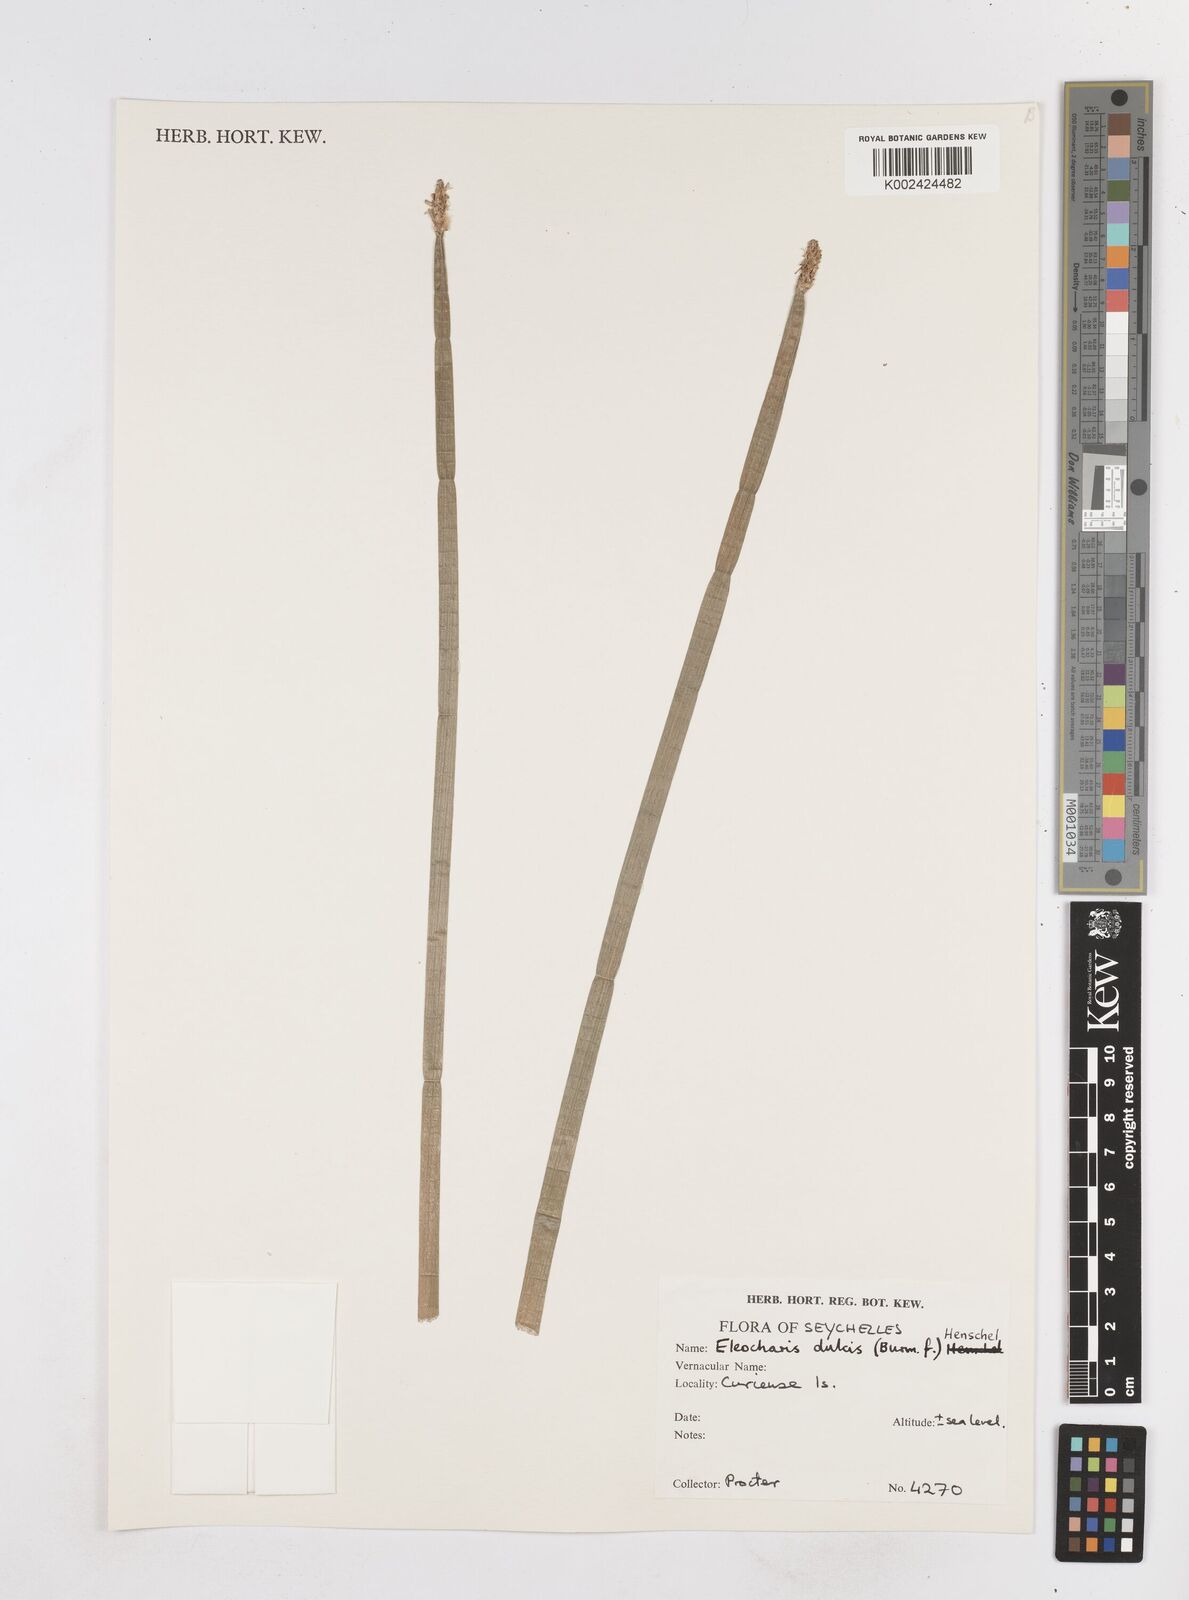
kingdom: Plantae
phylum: Tracheophyta
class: Liliopsida
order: Poales
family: Cyperaceae
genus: Eleocharis
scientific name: Eleocharis dulcis
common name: Chinese water chestnut
